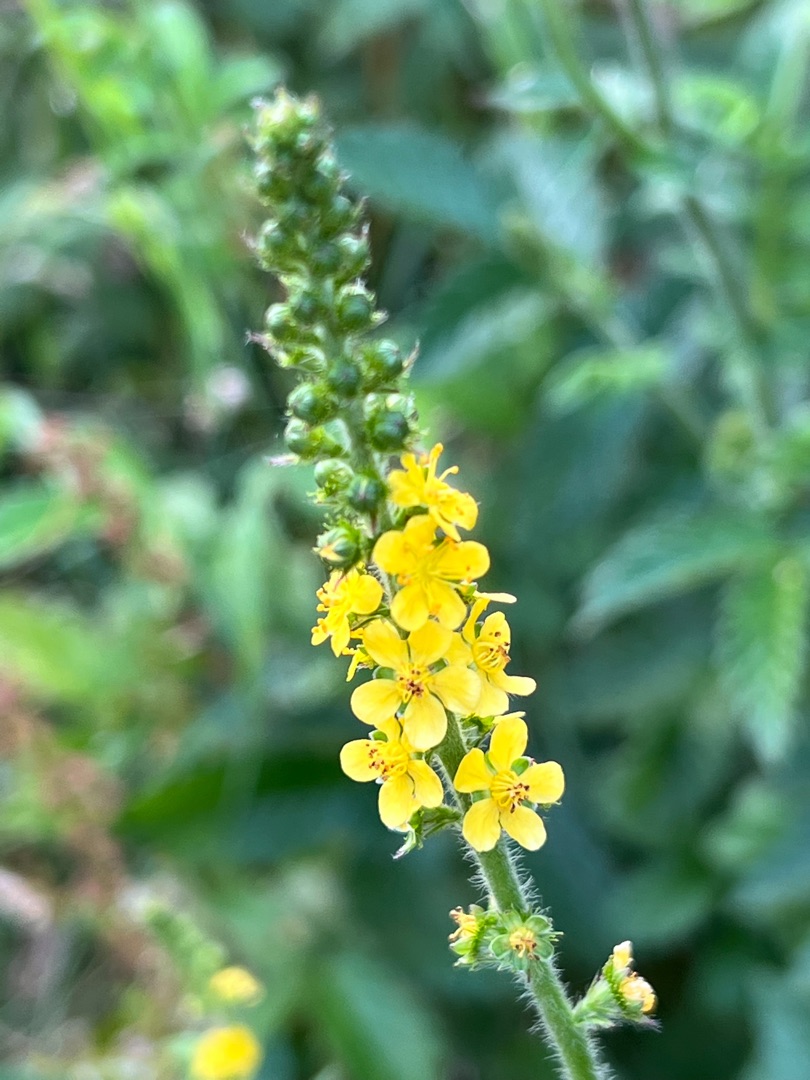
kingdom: Plantae
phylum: Tracheophyta
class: Magnoliopsida
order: Rosales
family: Rosaceae
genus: Agrimonia
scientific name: Agrimonia eupatoria
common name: Almindelig agermåne
